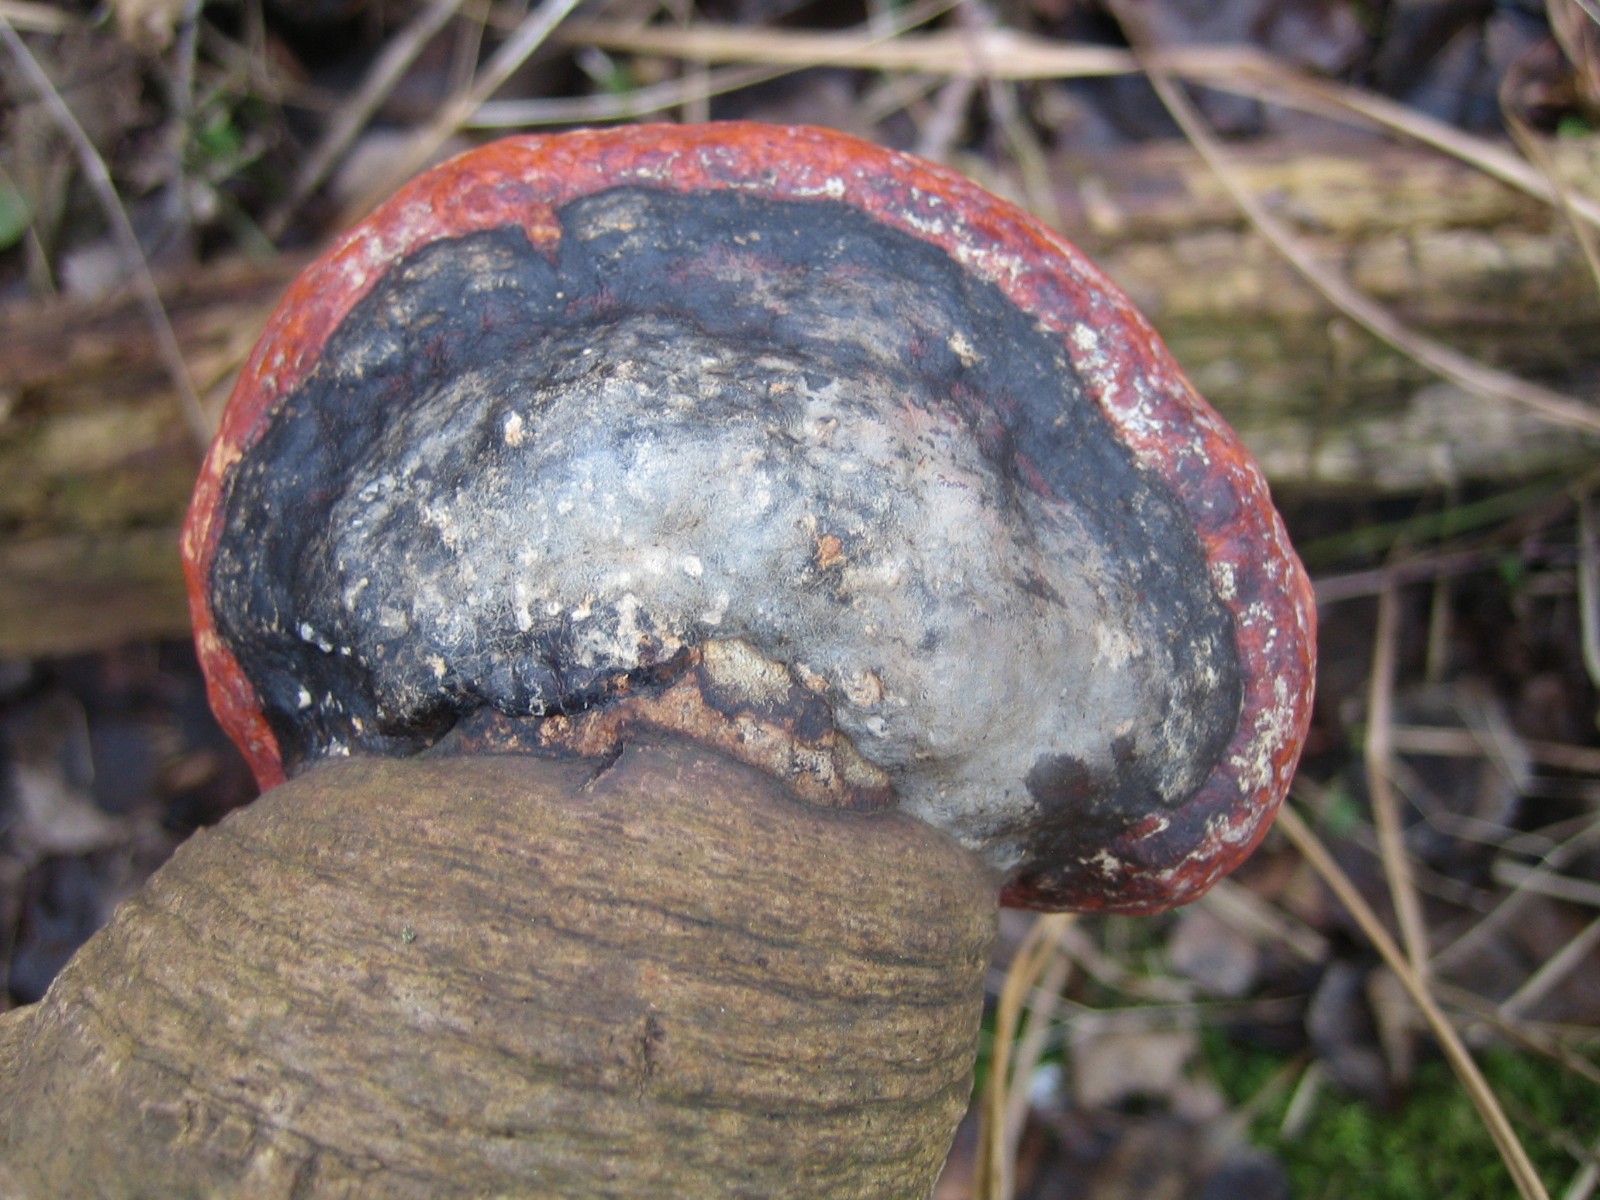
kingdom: Fungi
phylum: Basidiomycota
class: Agaricomycetes
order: Polyporales
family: Fomitopsidaceae
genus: Fomitopsis
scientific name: Fomitopsis pinicola
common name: randbæltet hovporesvamp
